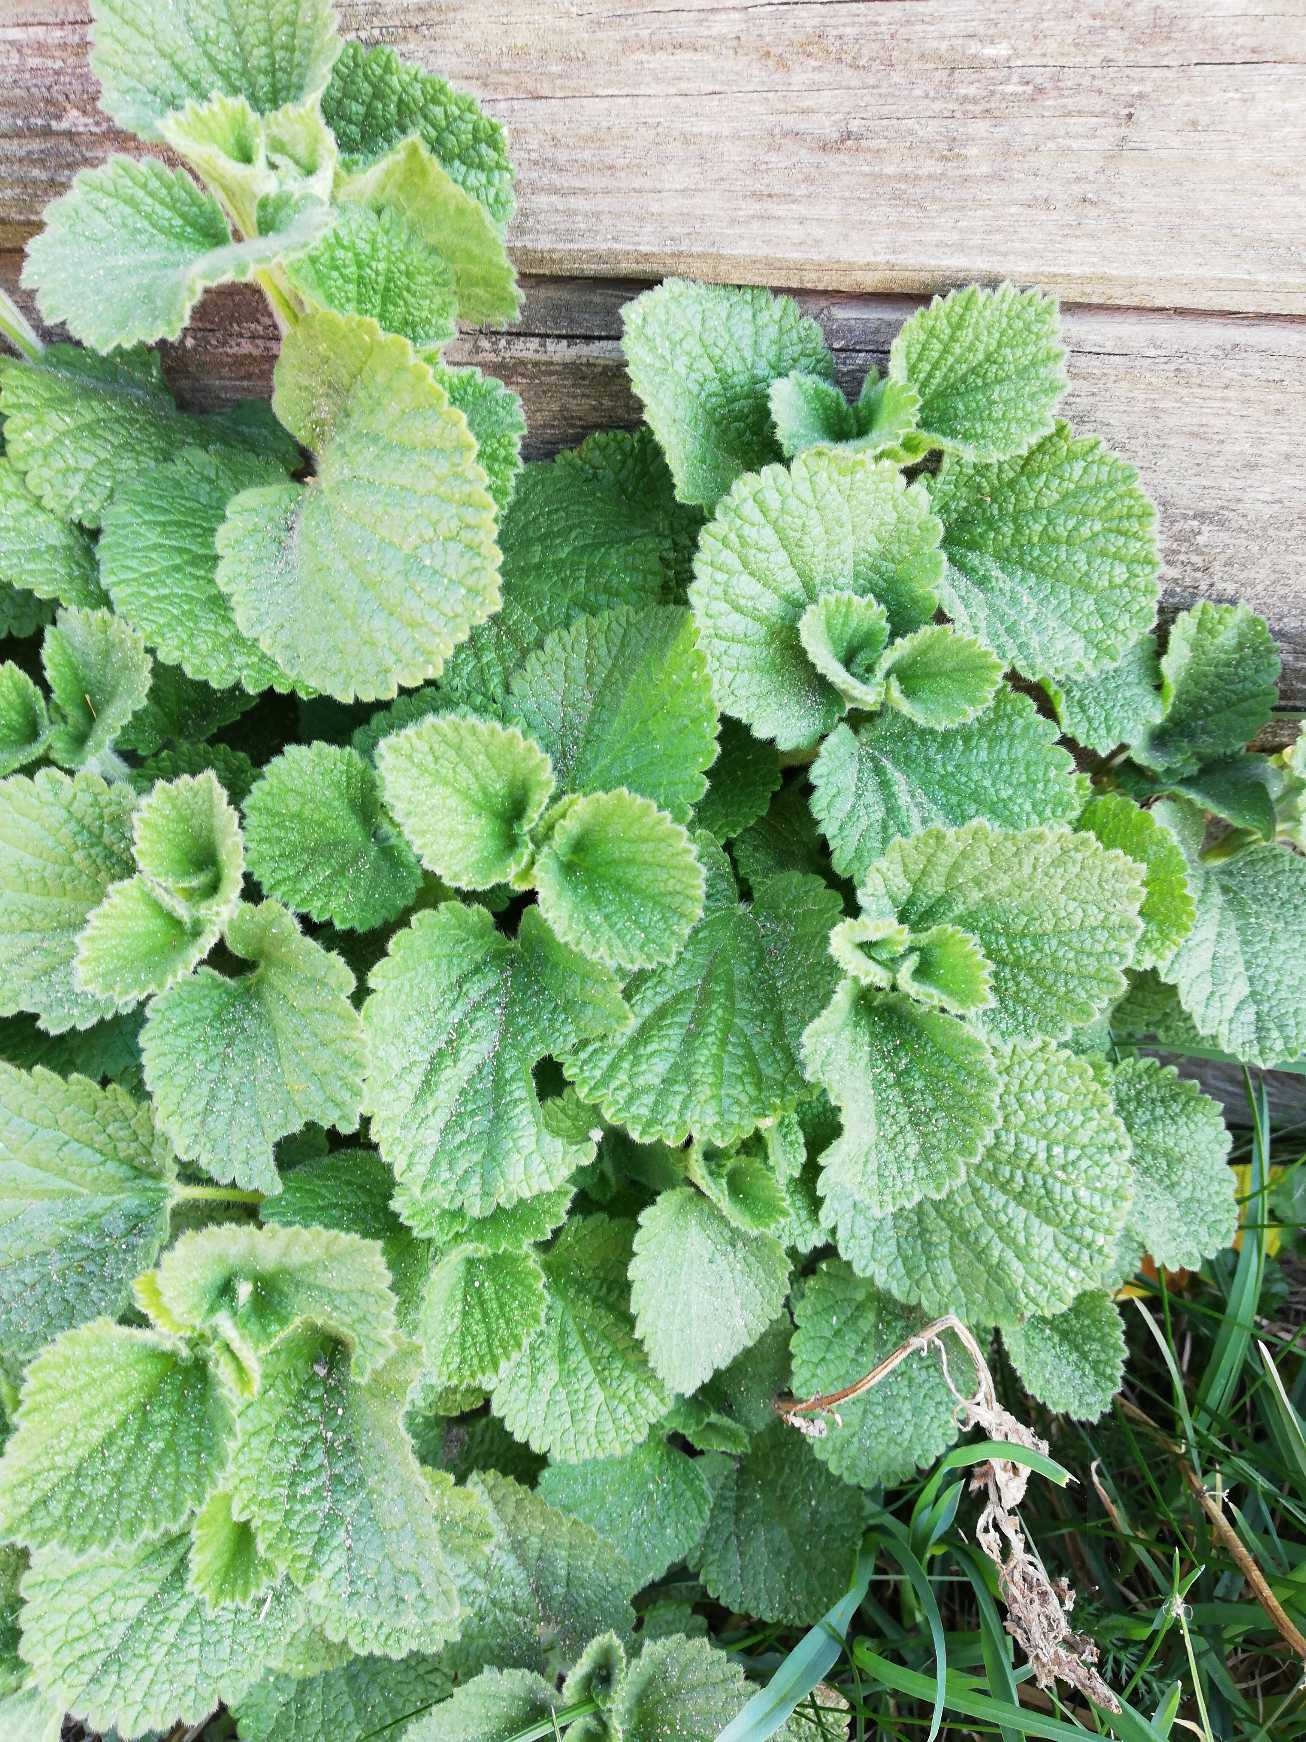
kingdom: Plantae
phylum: Tracheophyta
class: Magnoliopsida
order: Lamiales
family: Lamiaceae
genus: Ballota
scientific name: Ballota nigra
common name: Tandbæger
